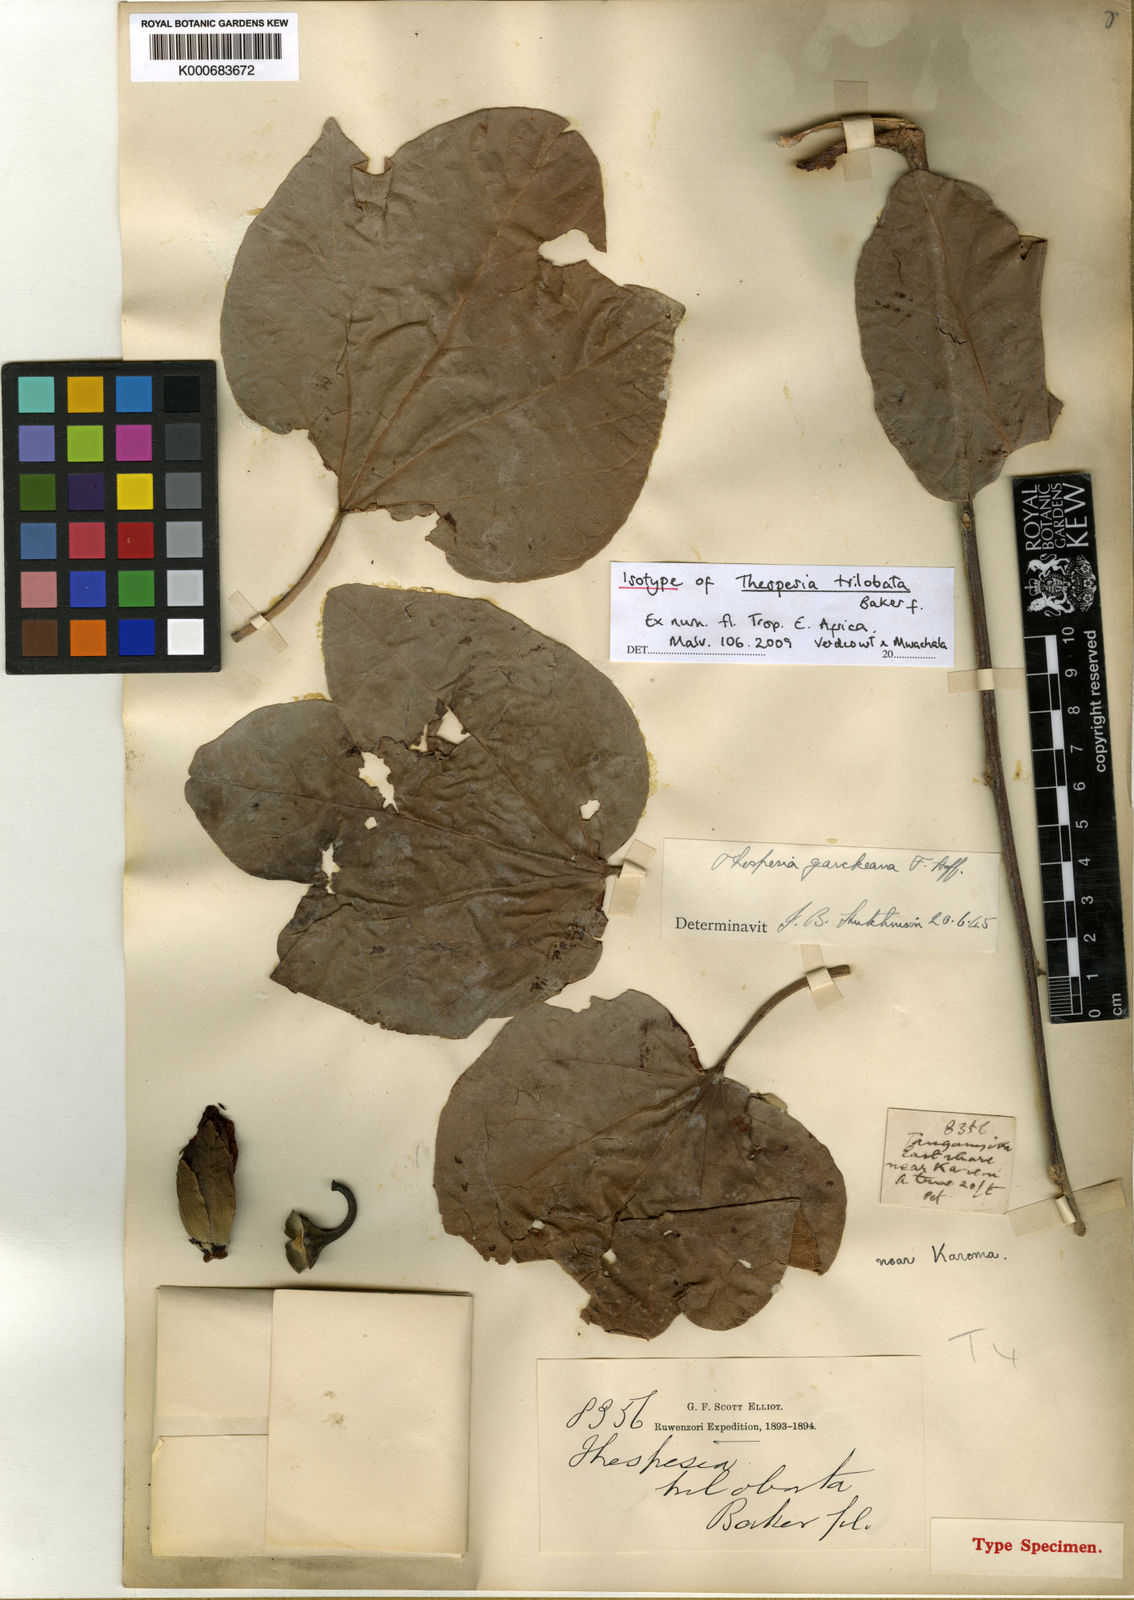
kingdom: Plantae
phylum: Tracheophyta
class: Magnoliopsida
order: Malvales
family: Malvaceae
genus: Thespesia
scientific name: Thespesia garckeana
